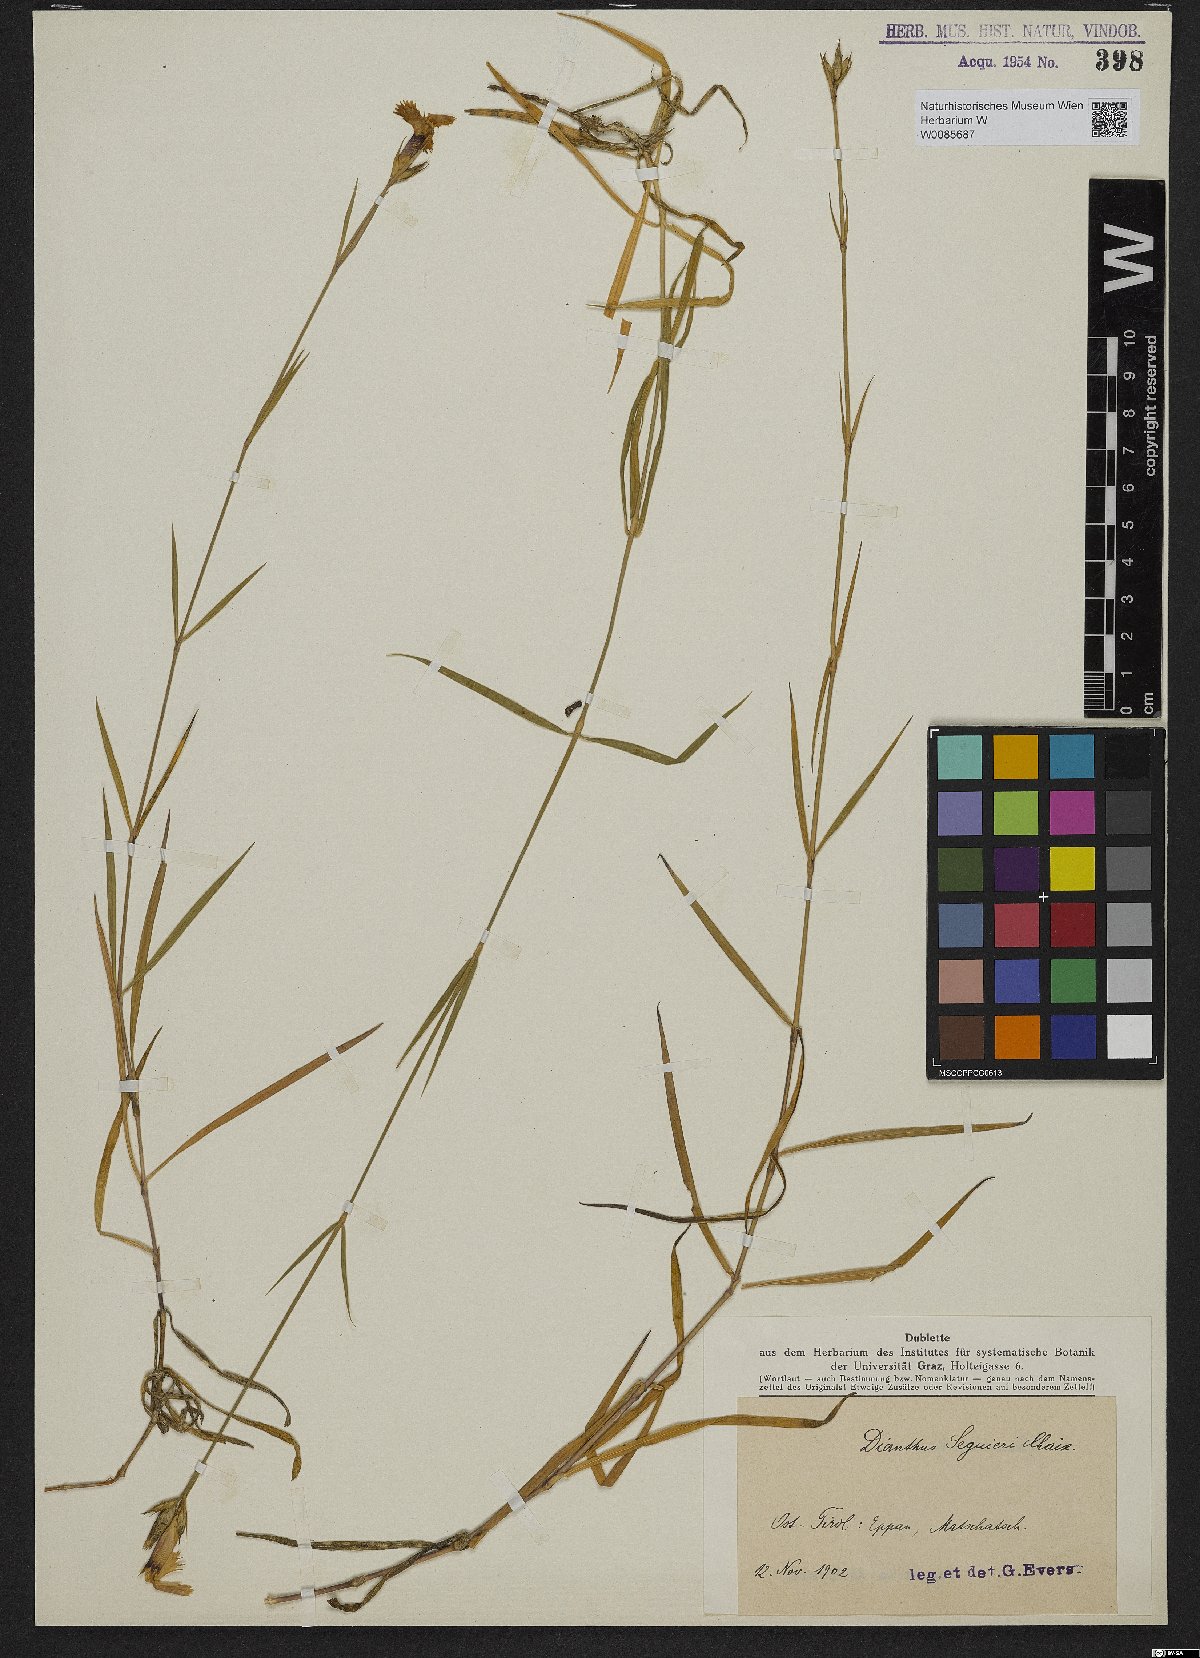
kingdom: Plantae
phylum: Tracheophyta
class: Magnoliopsida
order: Caryophyllales
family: Caryophyllaceae
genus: Dianthus
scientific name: Dianthus seguieri
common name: Ragged pink
